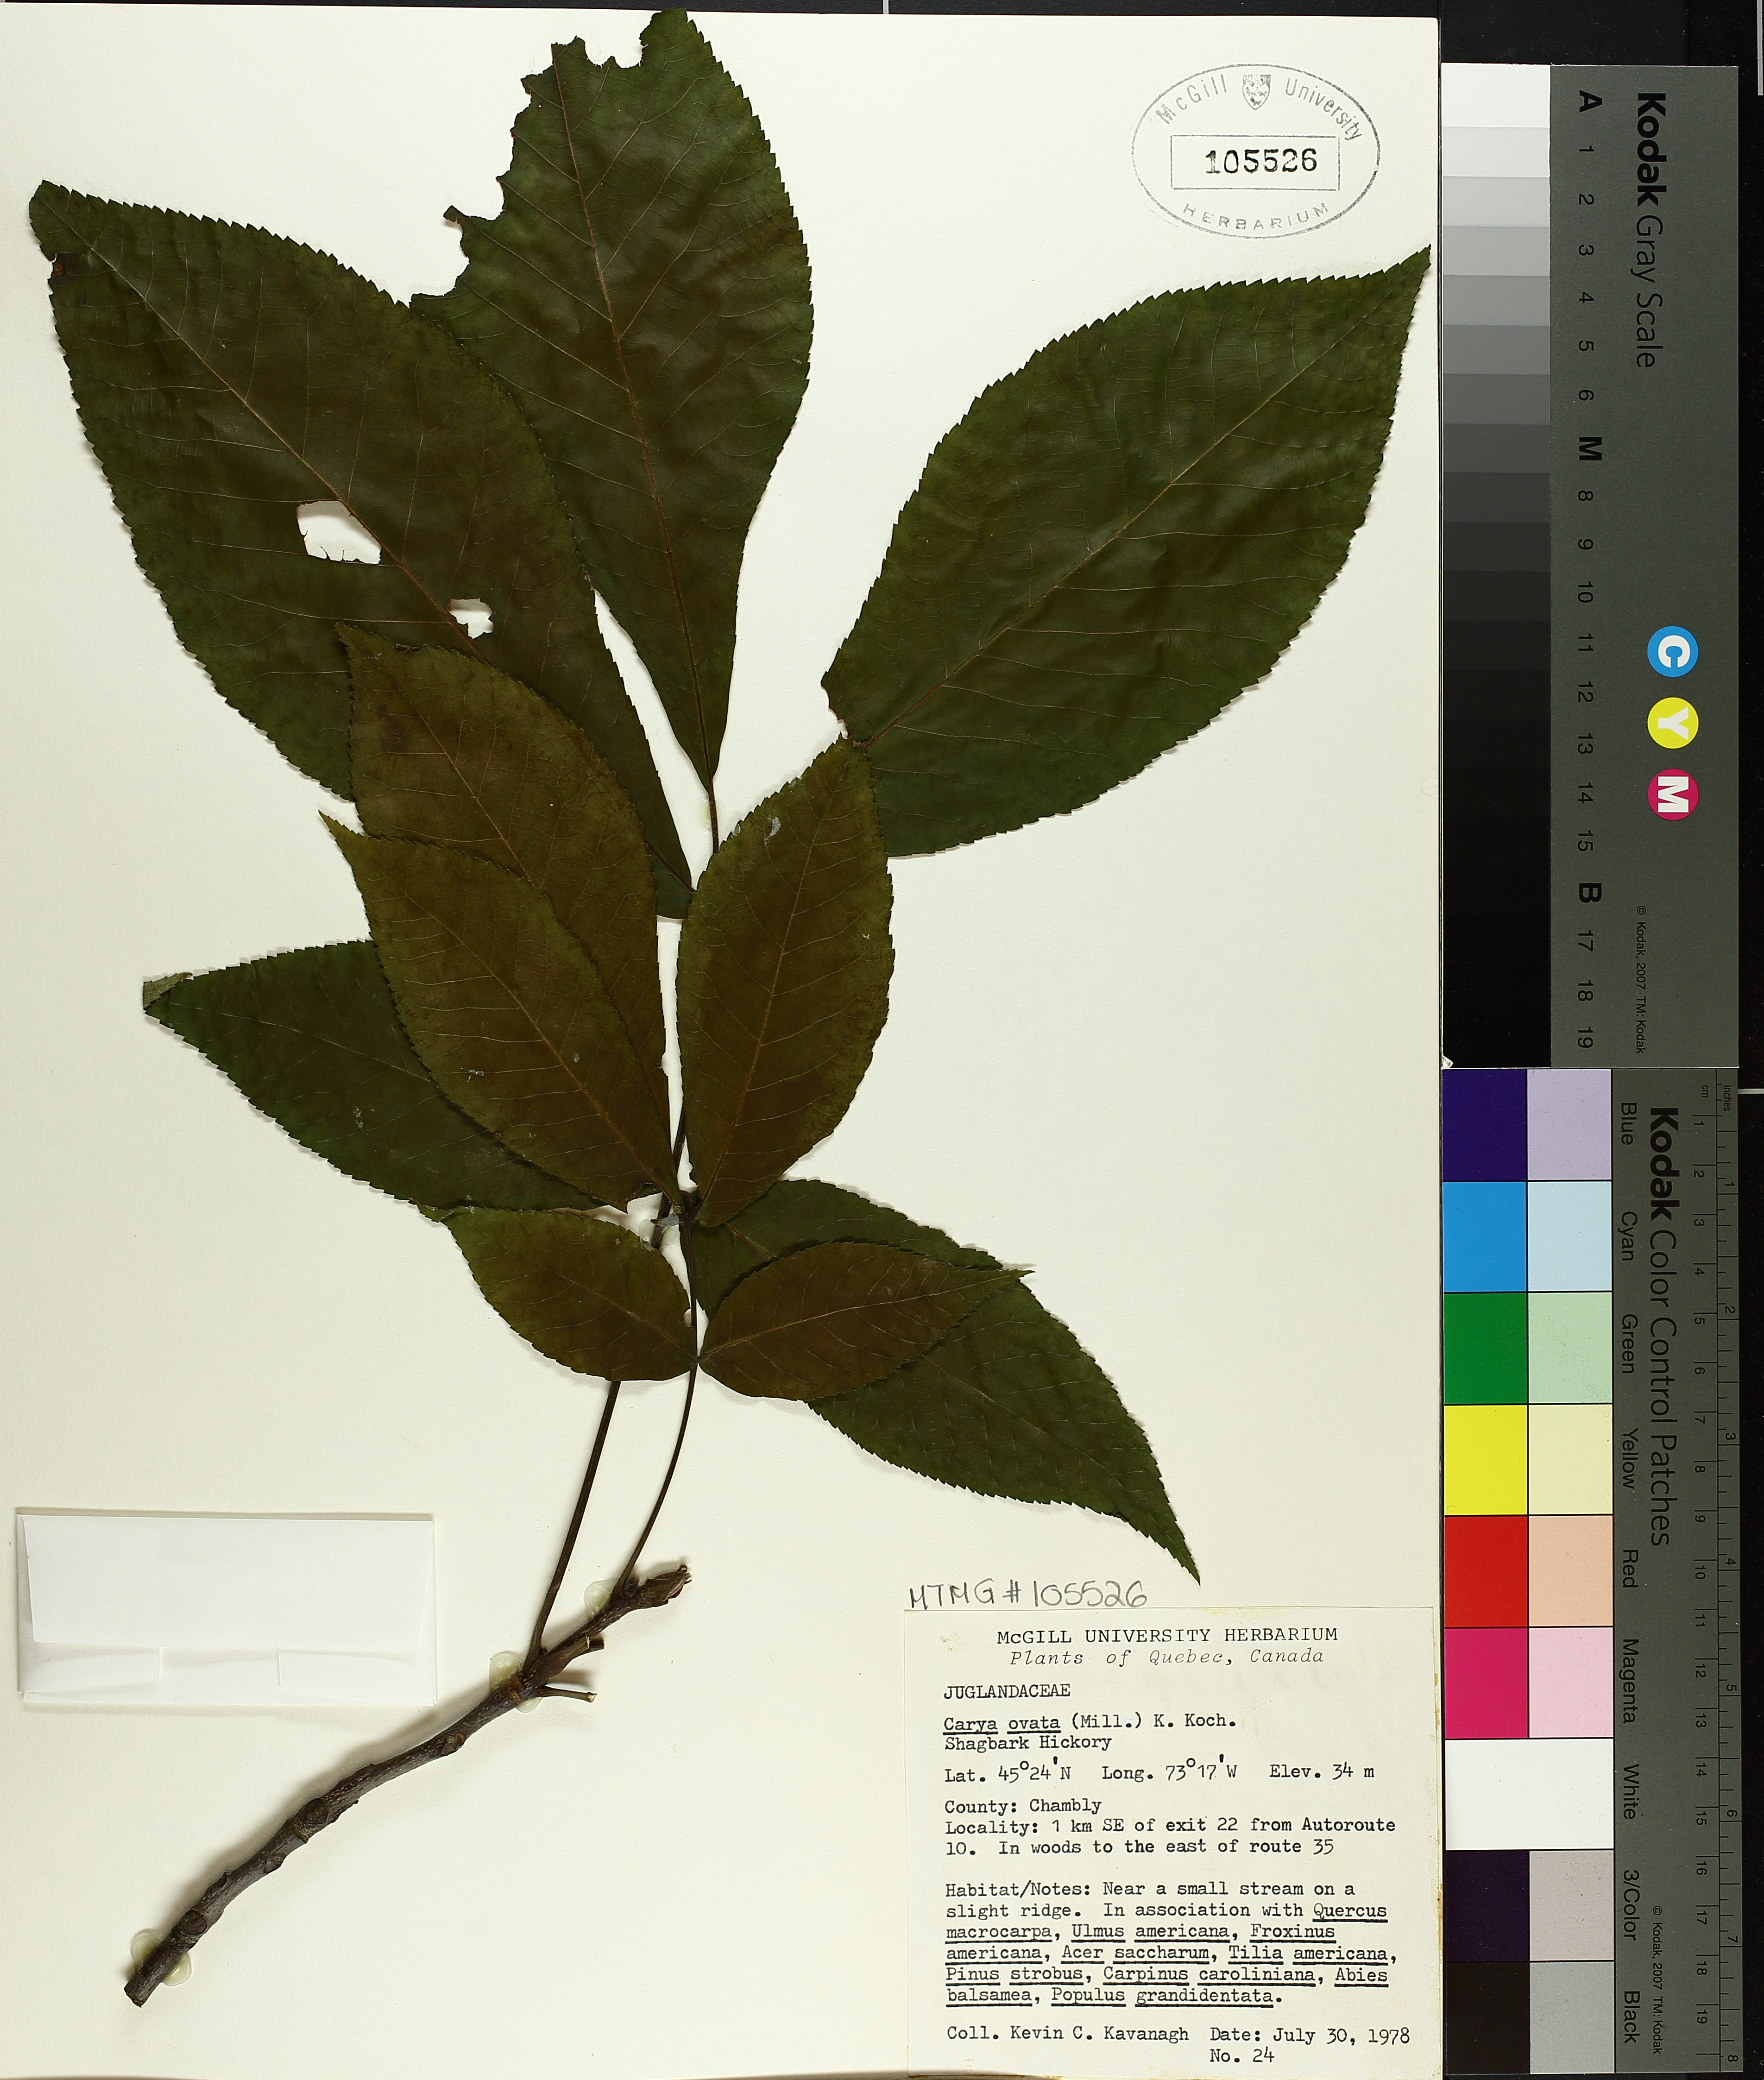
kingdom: Plantae
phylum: Tracheophyta
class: Magnoliopsida
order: Fagales
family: Juglandaceae
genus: Carya
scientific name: Carya ovata
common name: Shagbark hickory
